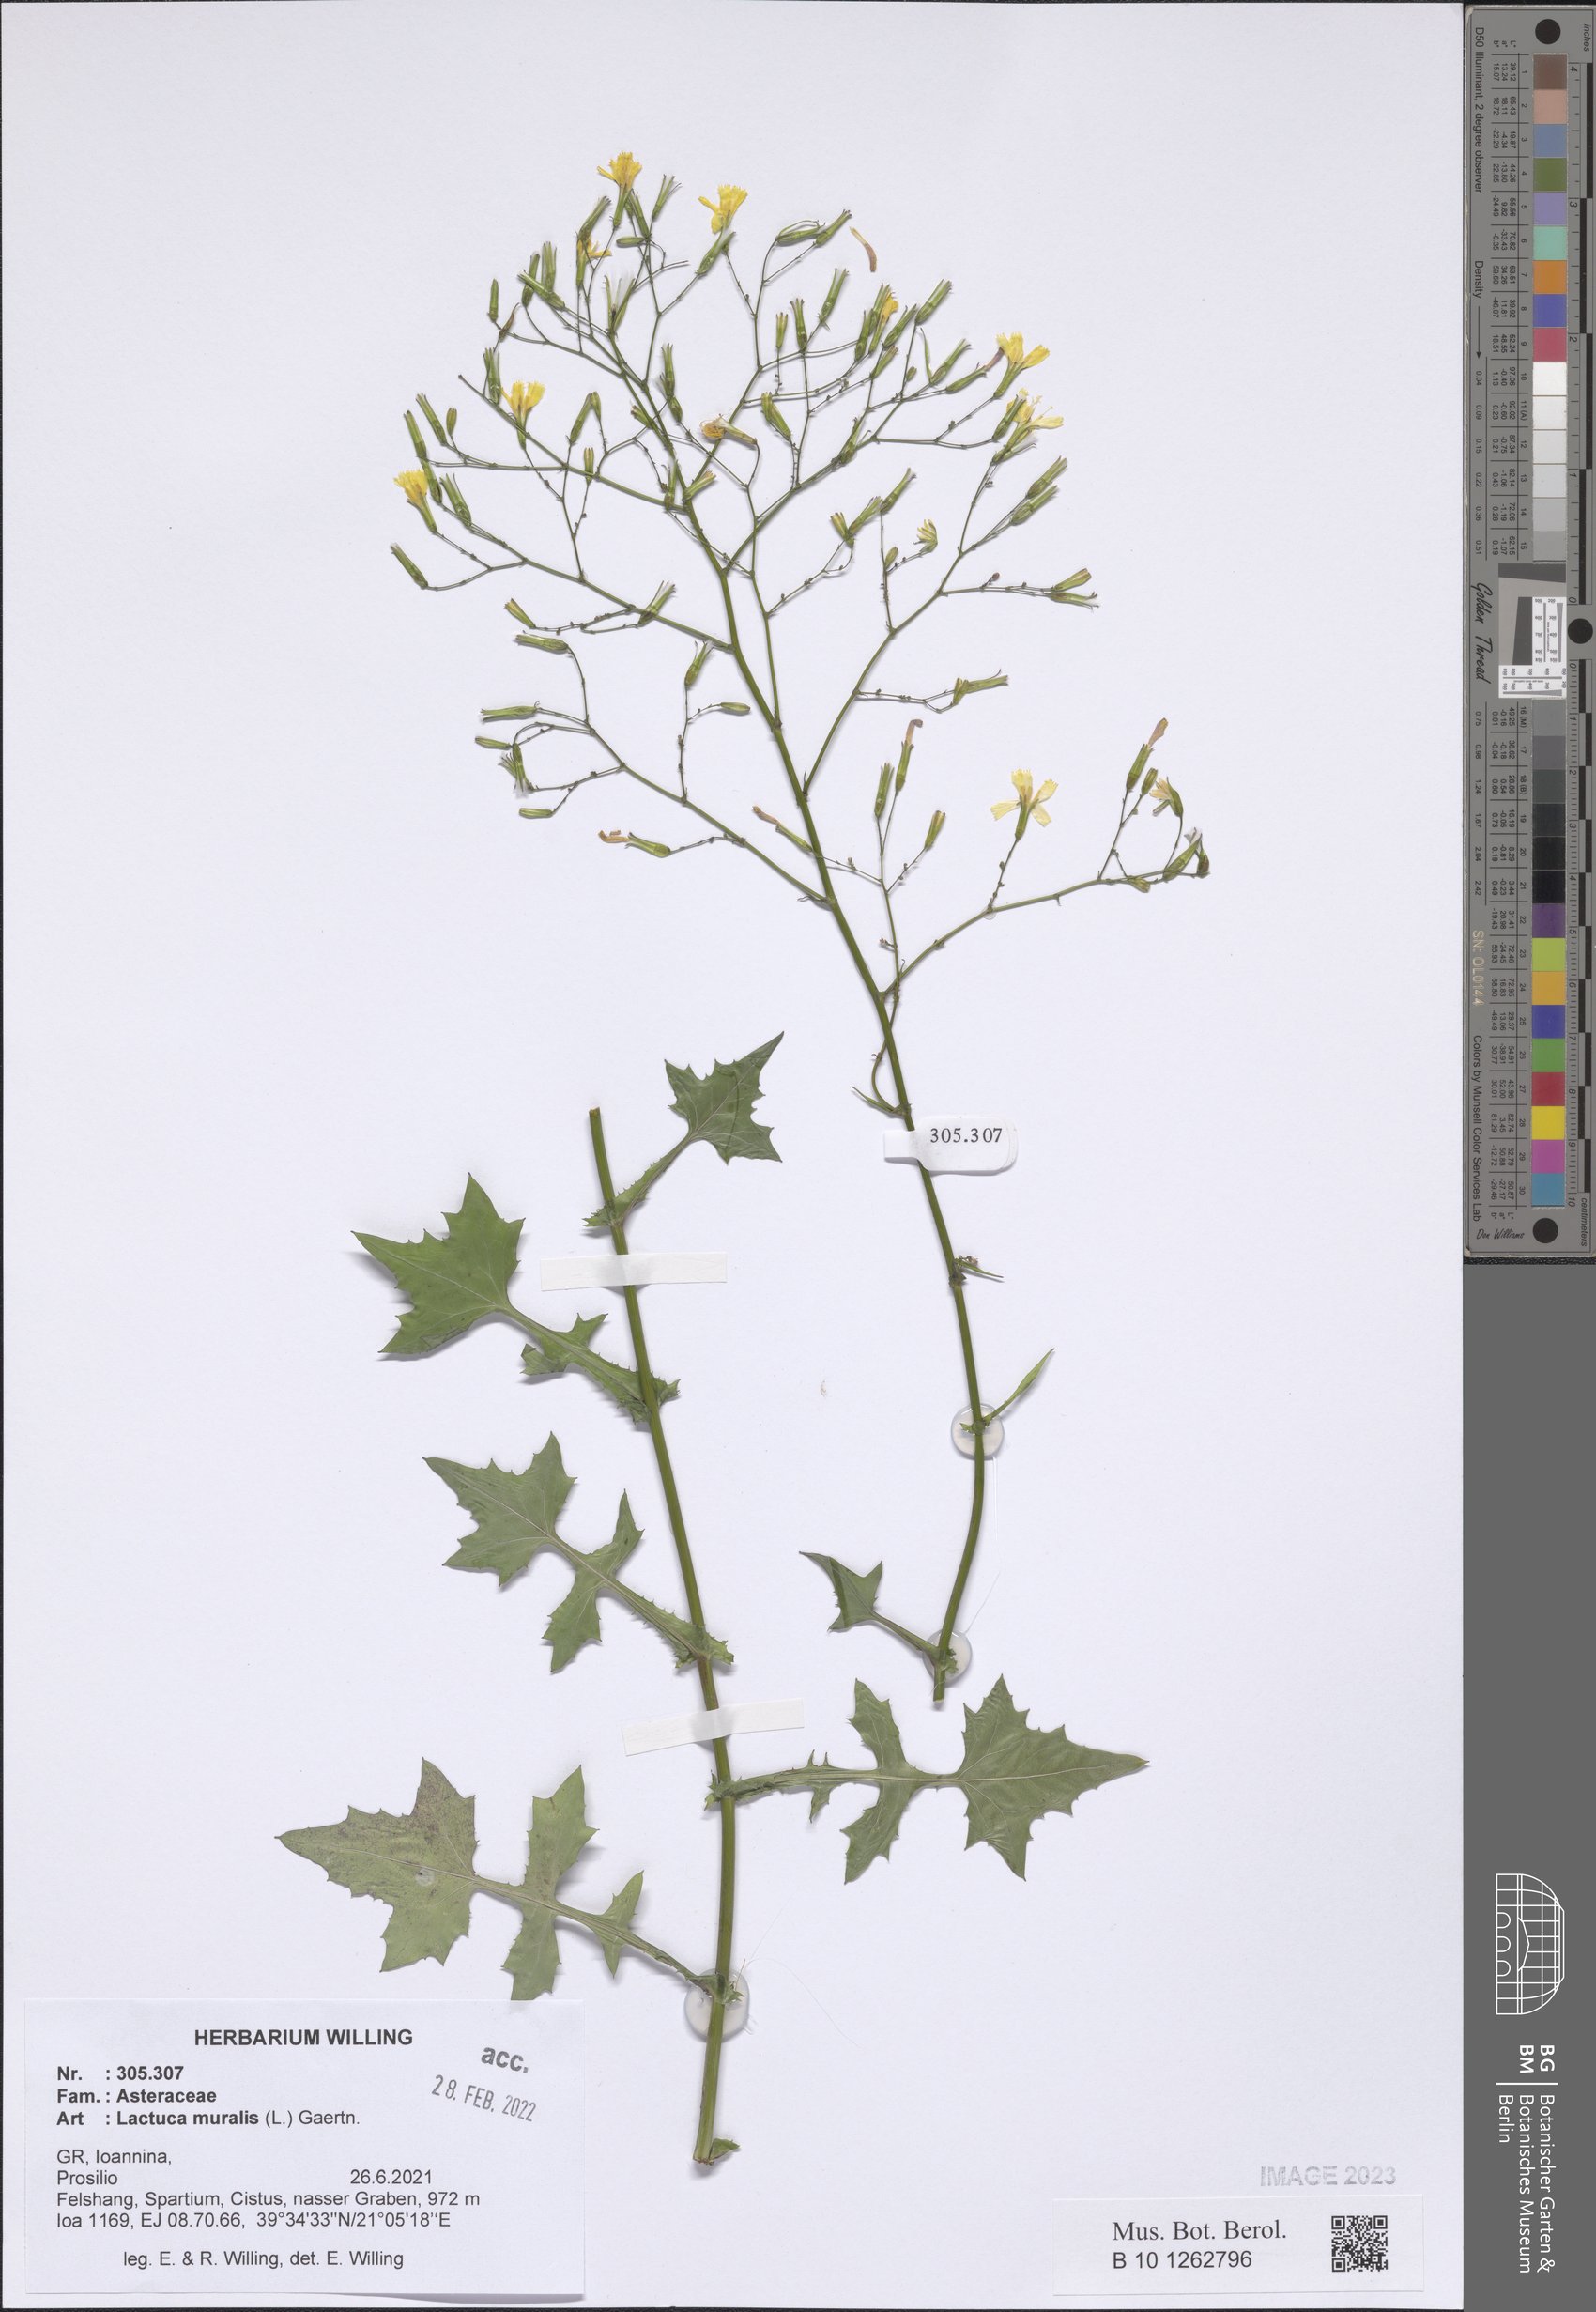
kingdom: Plantae
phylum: Tracheophyta
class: Magnoliopsida
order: Asterales
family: Asteraceae
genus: Mycelis
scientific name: Mycelis muralis
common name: Wall lettuce
